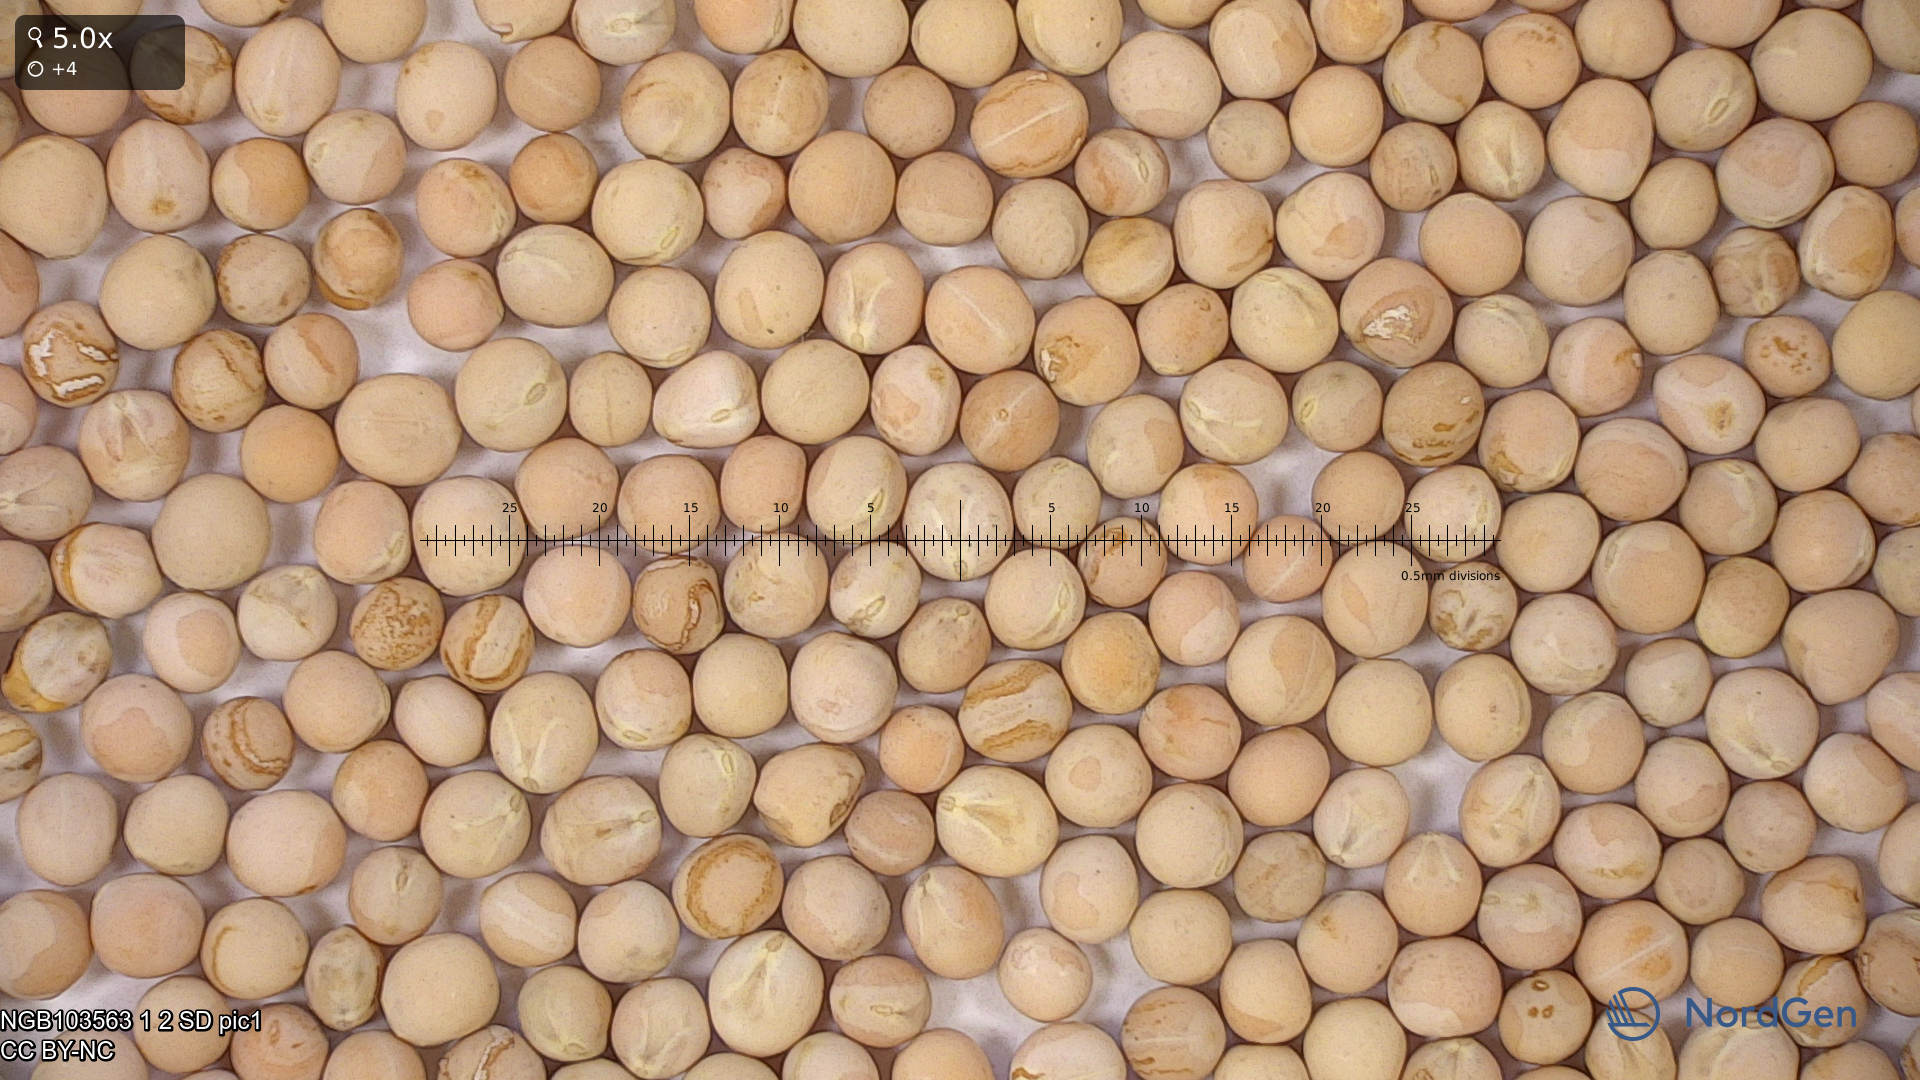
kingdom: Plantae
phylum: Tracheophyta
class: Magnoliopsida
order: Fabales
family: Fabaceae
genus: Lathyrus
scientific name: Lathyrus oleraceus
